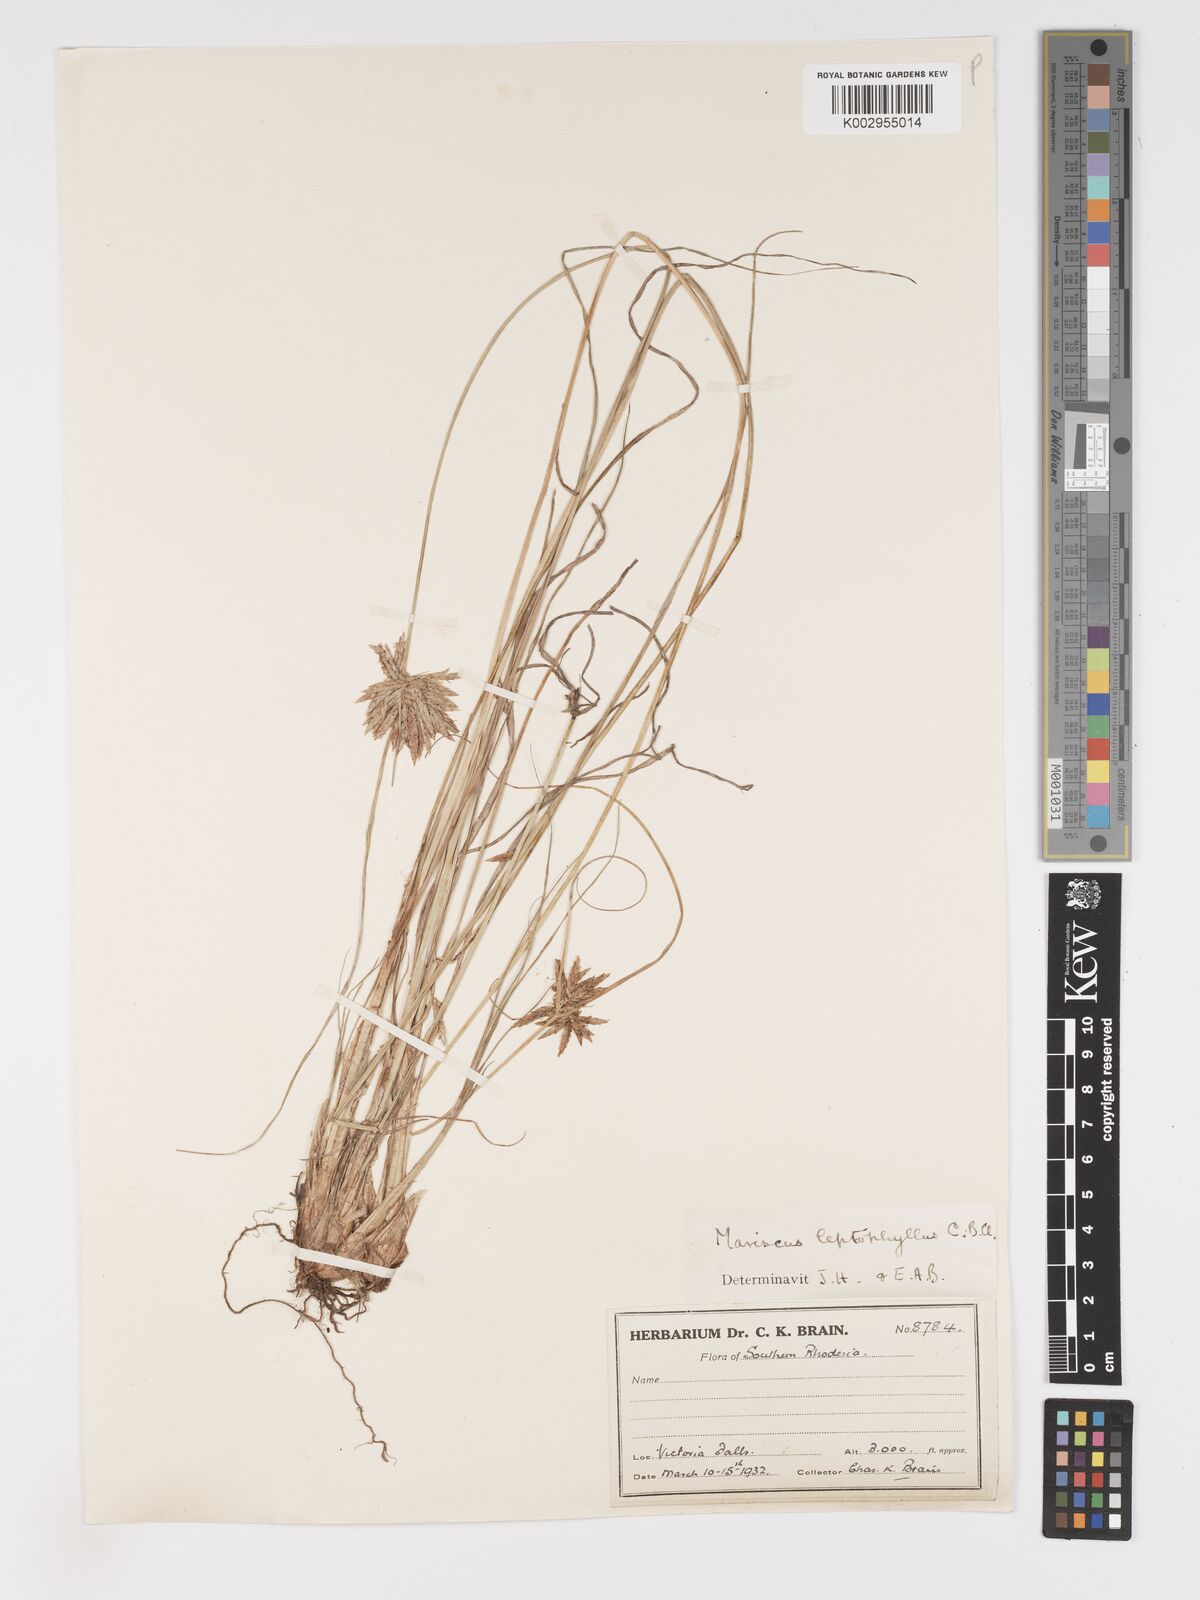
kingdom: Plantae
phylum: Tracheophyta
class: Liliopsida
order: Poales
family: Cyperaceae
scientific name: Cyperaceae
